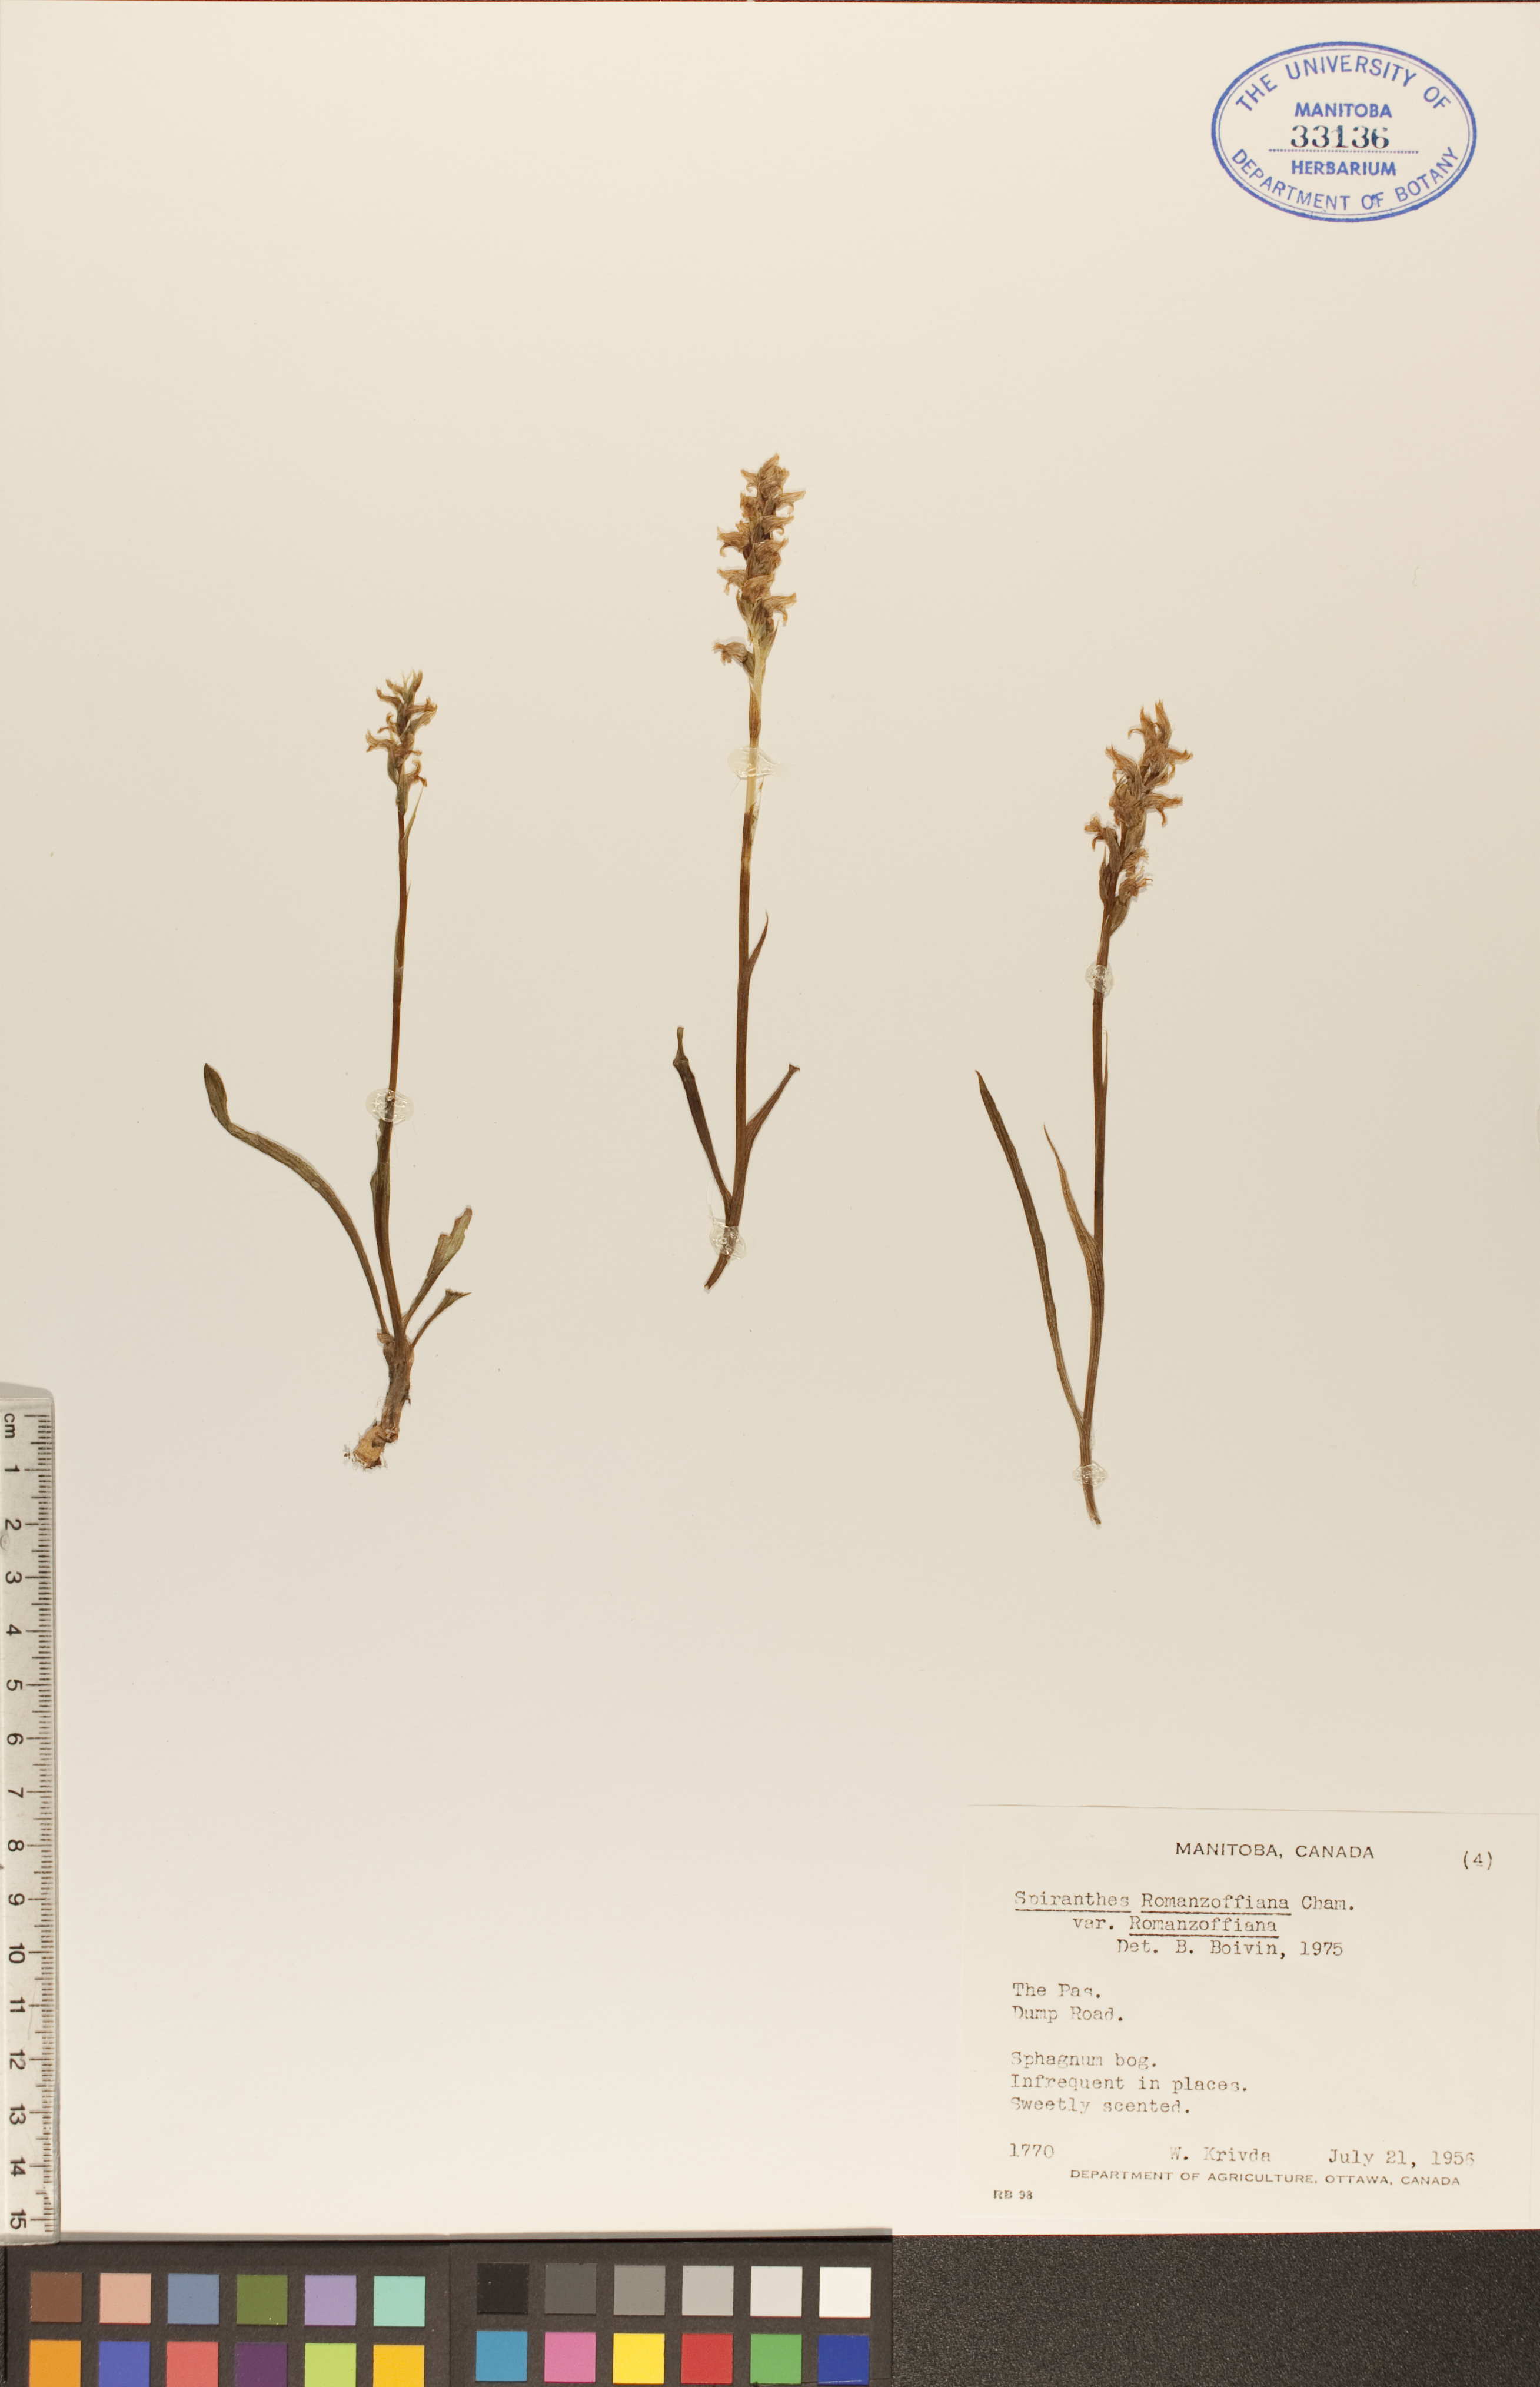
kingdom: Plantae
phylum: Tracheophyta
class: Liliopsida
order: Asparagales
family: Orchidaceae
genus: Spiranthes
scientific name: Spiranthes romanzoffiana
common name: Irish lady's-tresses
